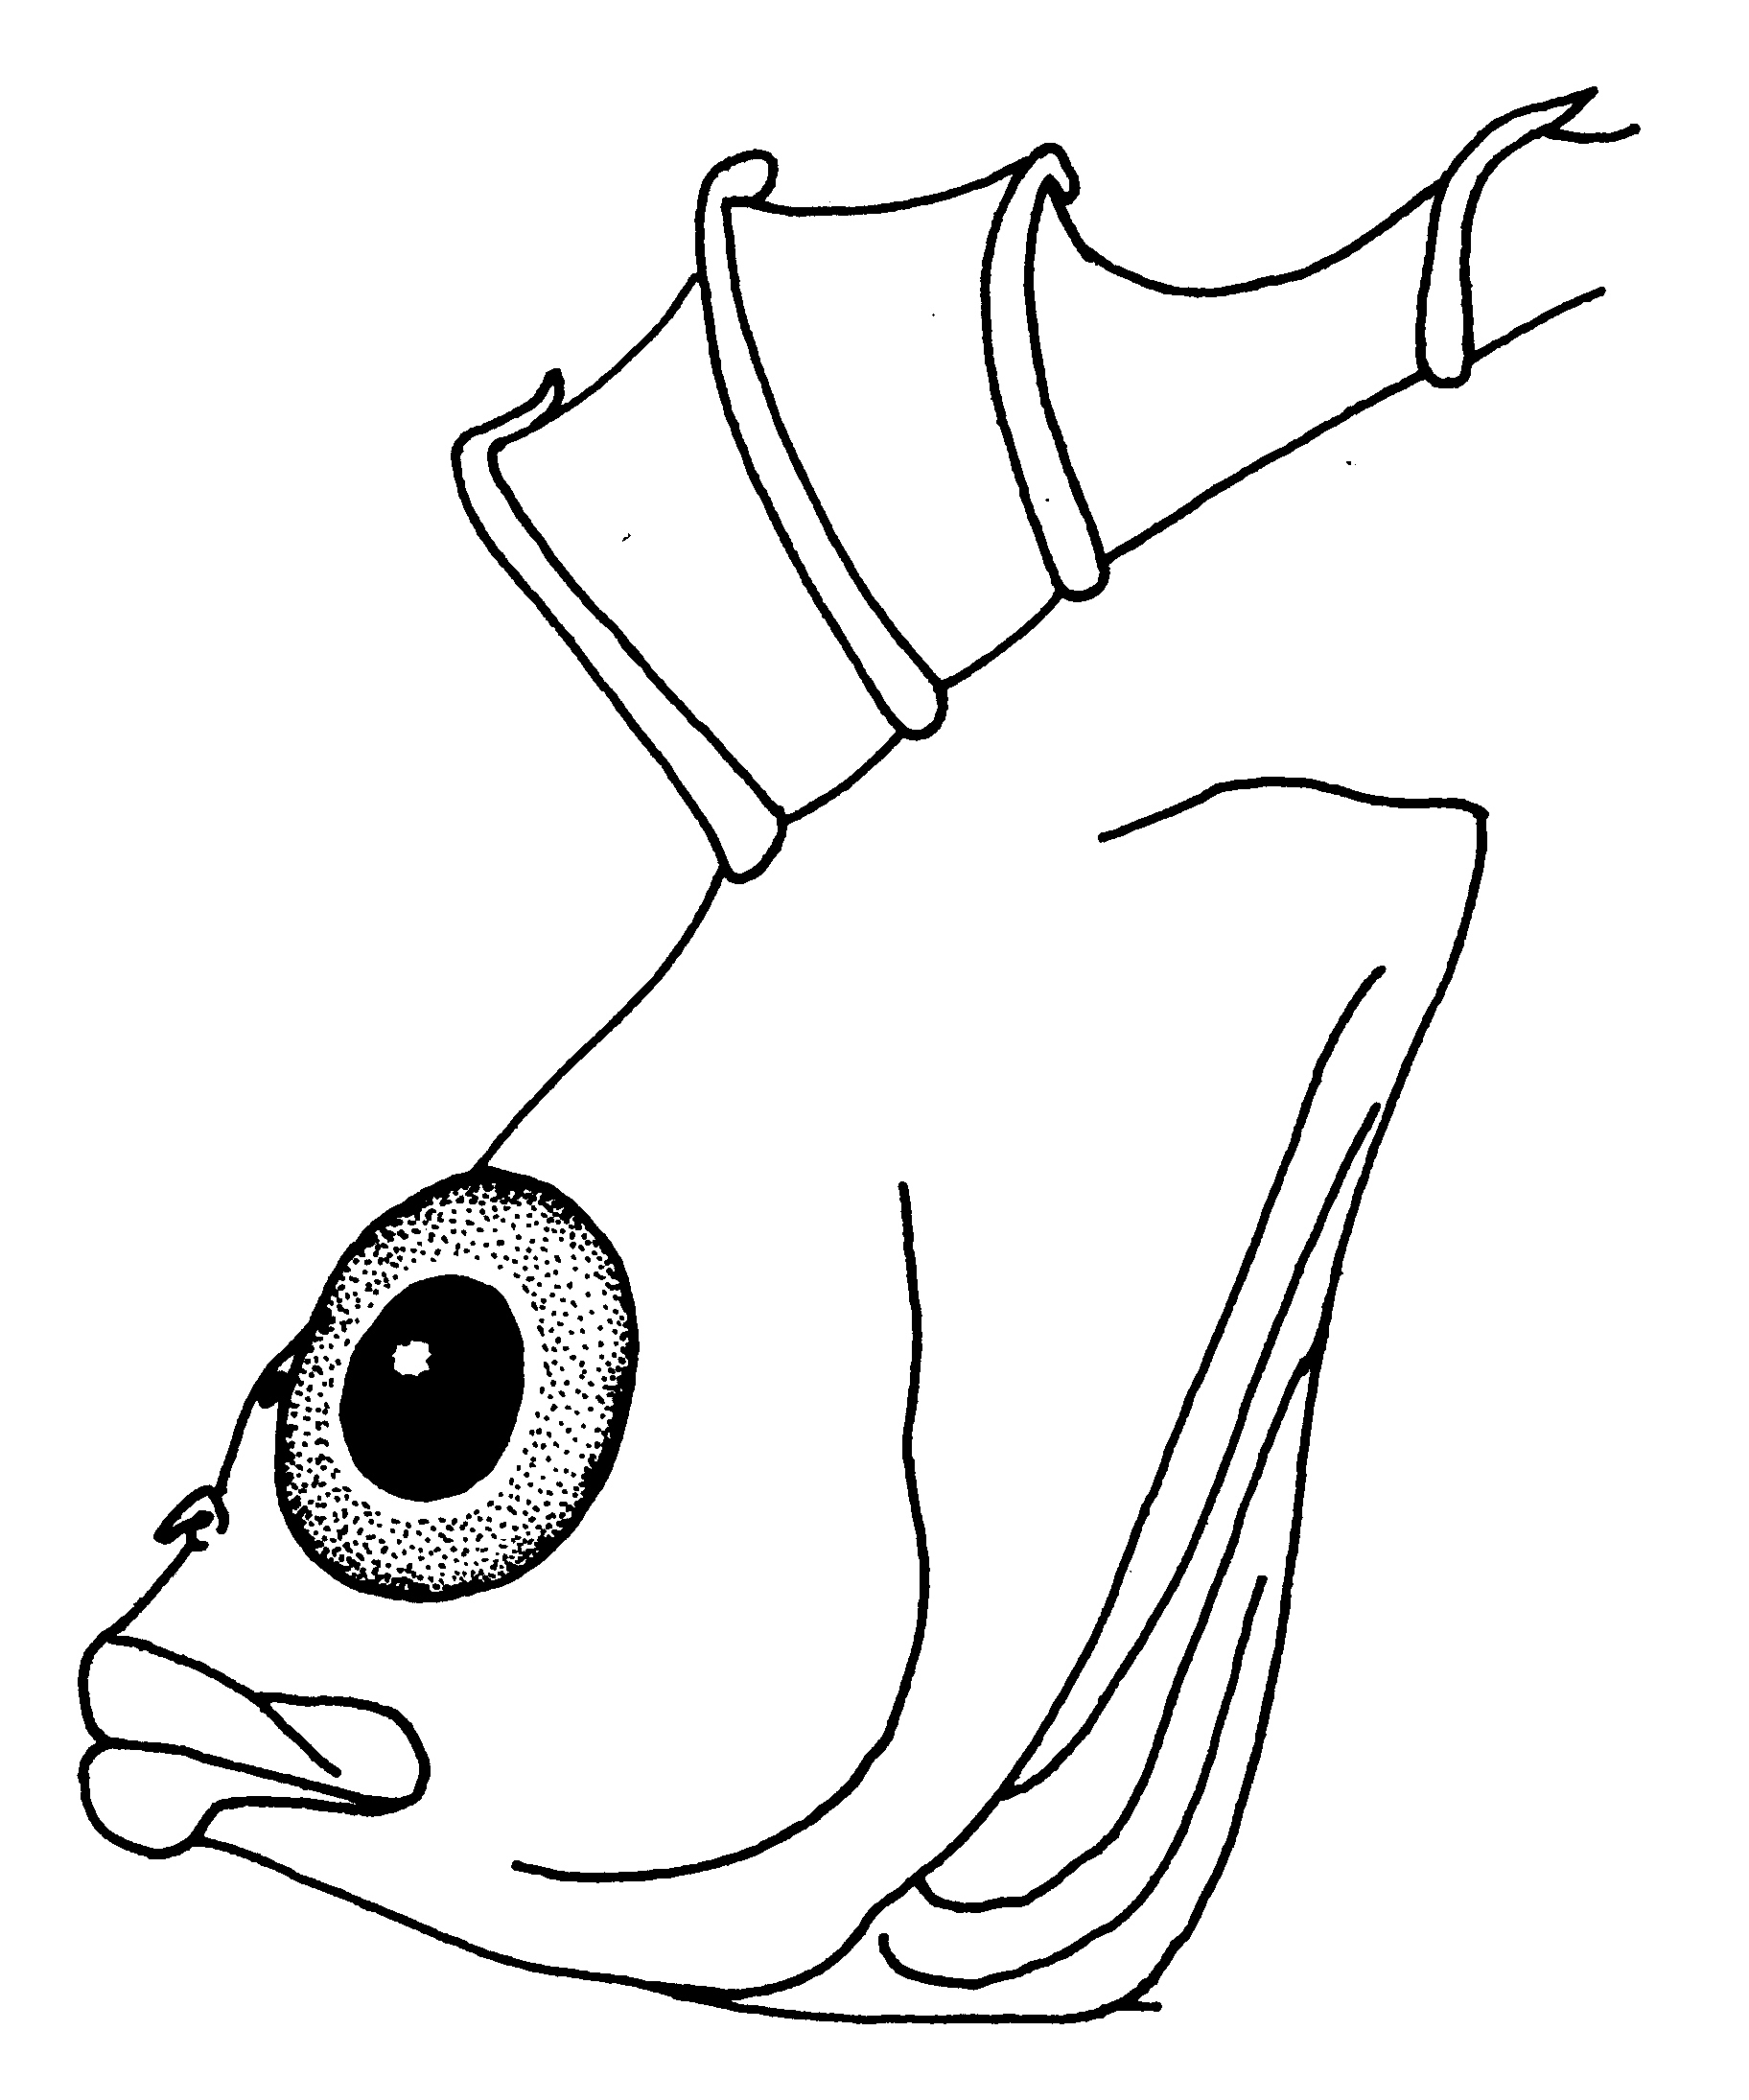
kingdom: Animalia
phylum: Chordata
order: Perciformes
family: Clinidae
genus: Pavoclinus
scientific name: Pavoclinus laurentii
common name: Rippled klipfish
